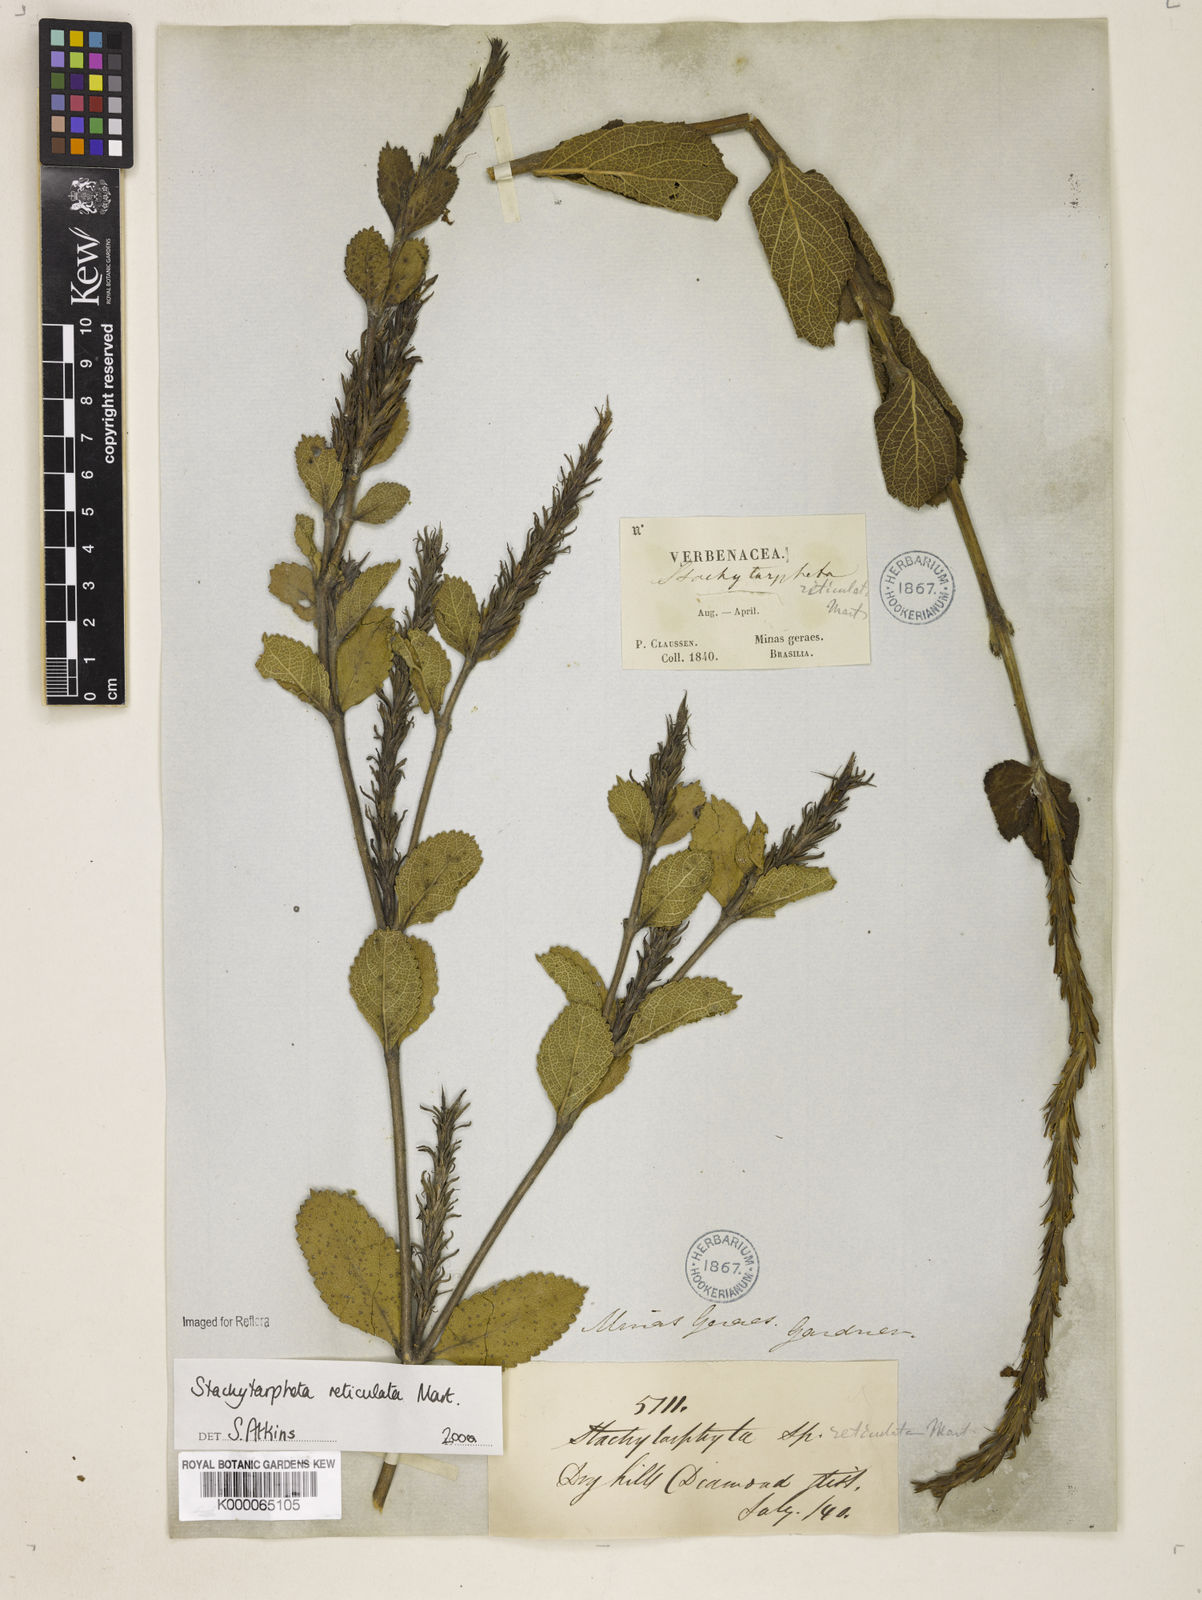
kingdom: Plantae
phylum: Tracheophyta
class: Magnoliopsida
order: Lamiales
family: Verbenaceae
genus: Stachytarpheta
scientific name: Stachytarpheta
